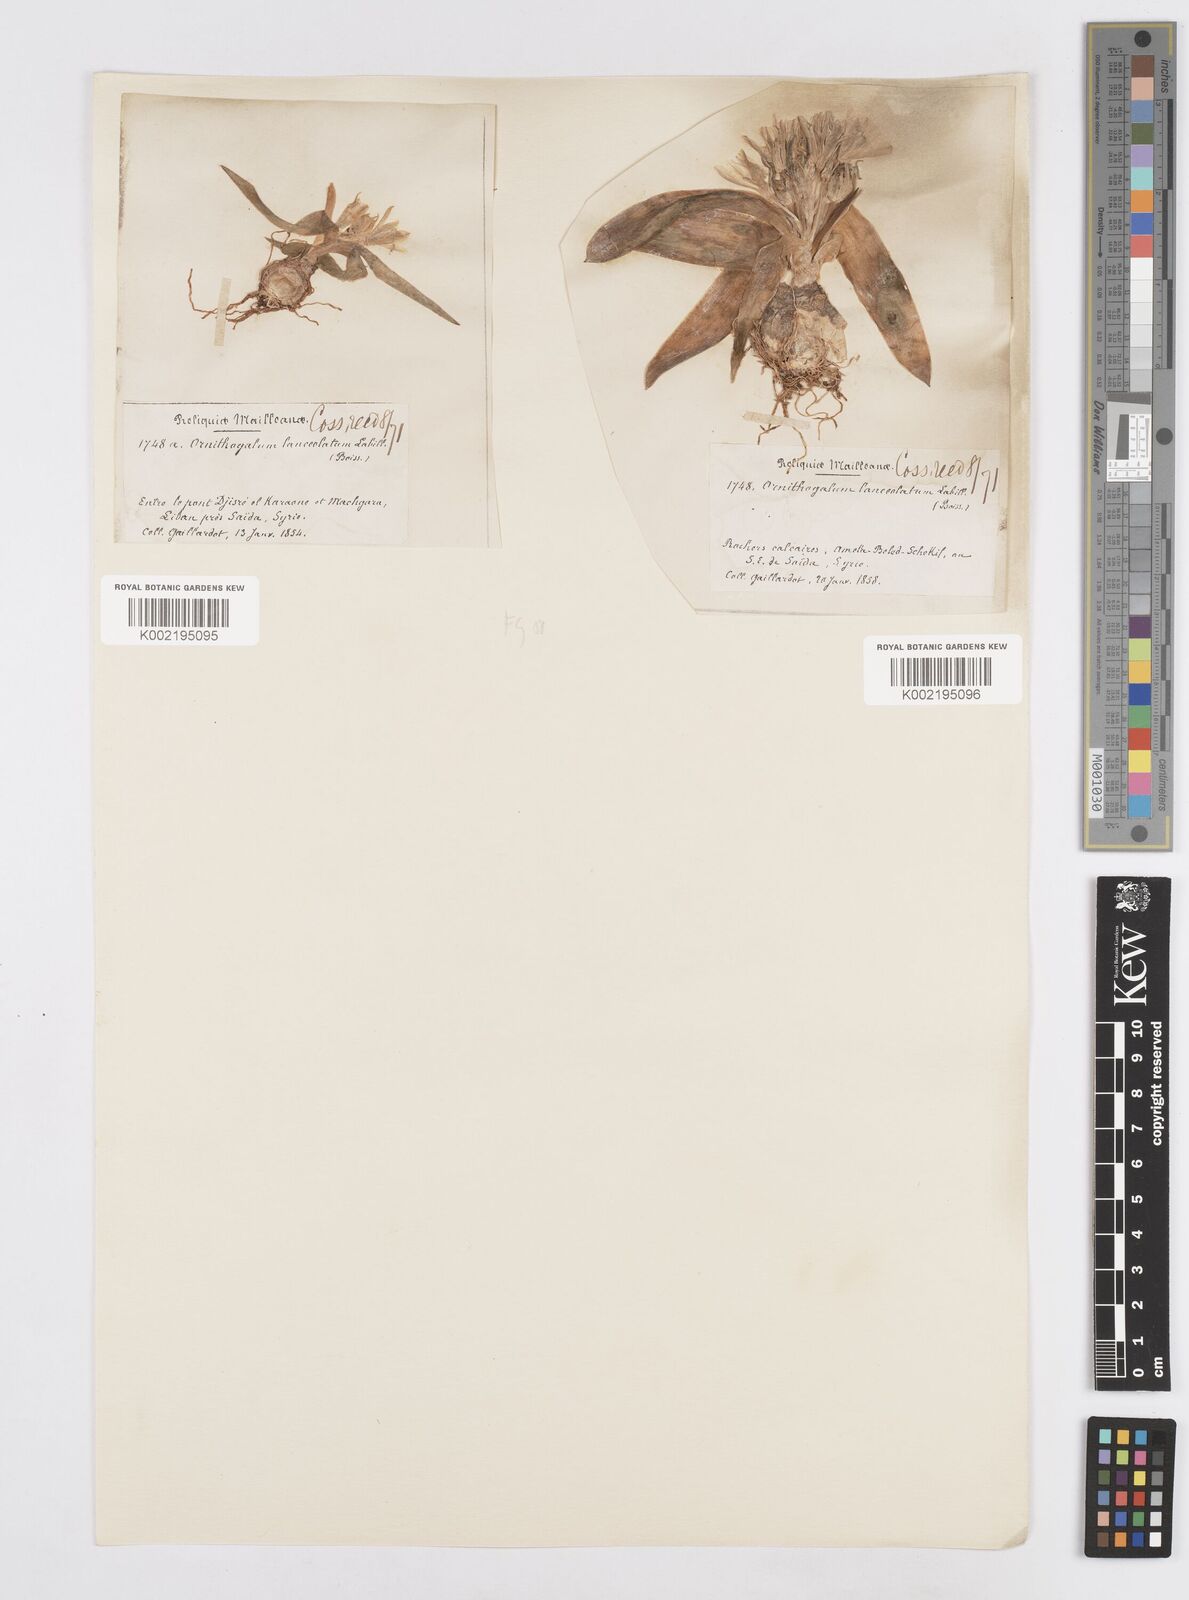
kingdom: Plantae
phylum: Tracheophyta
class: Liliopsida
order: Asparagales
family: Asparagaceae
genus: Ornithogalum
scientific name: Ornithogalum lanceolatum
